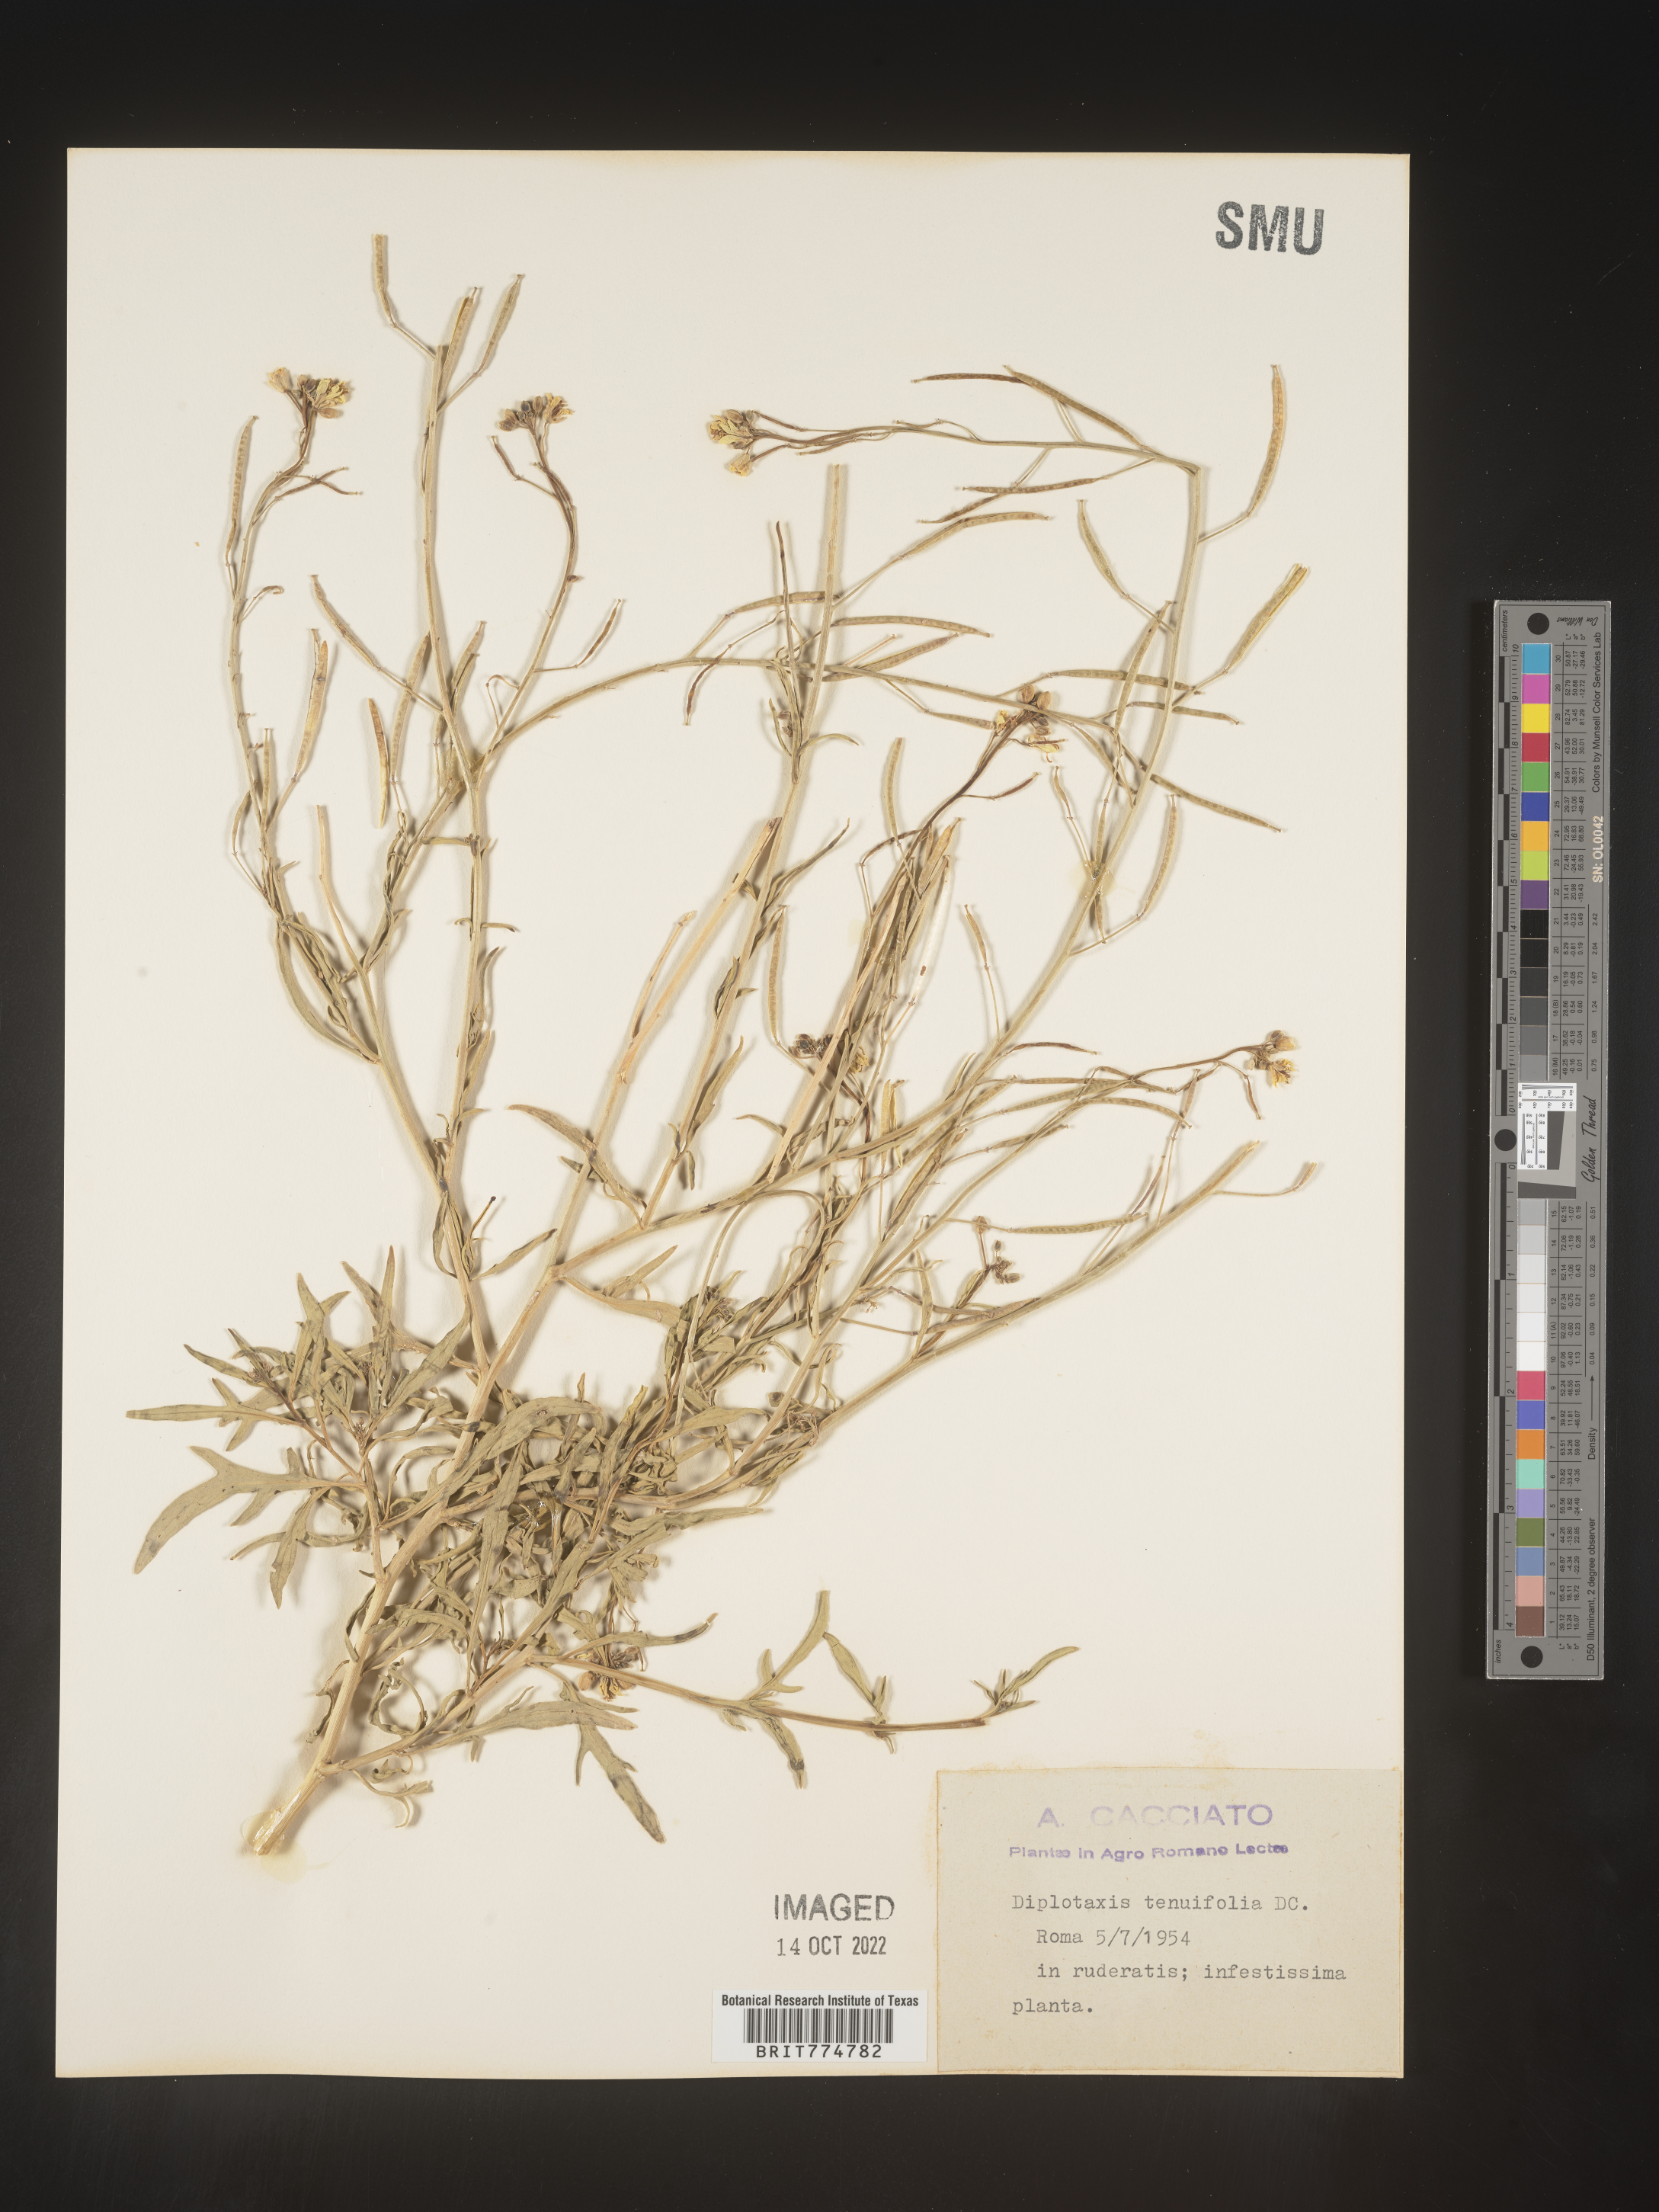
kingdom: Plantae
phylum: Tracheophyta
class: Magnoliopsida
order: Brassicales
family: Brassicaceae
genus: Diplotaxis
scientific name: Diplotaxis
